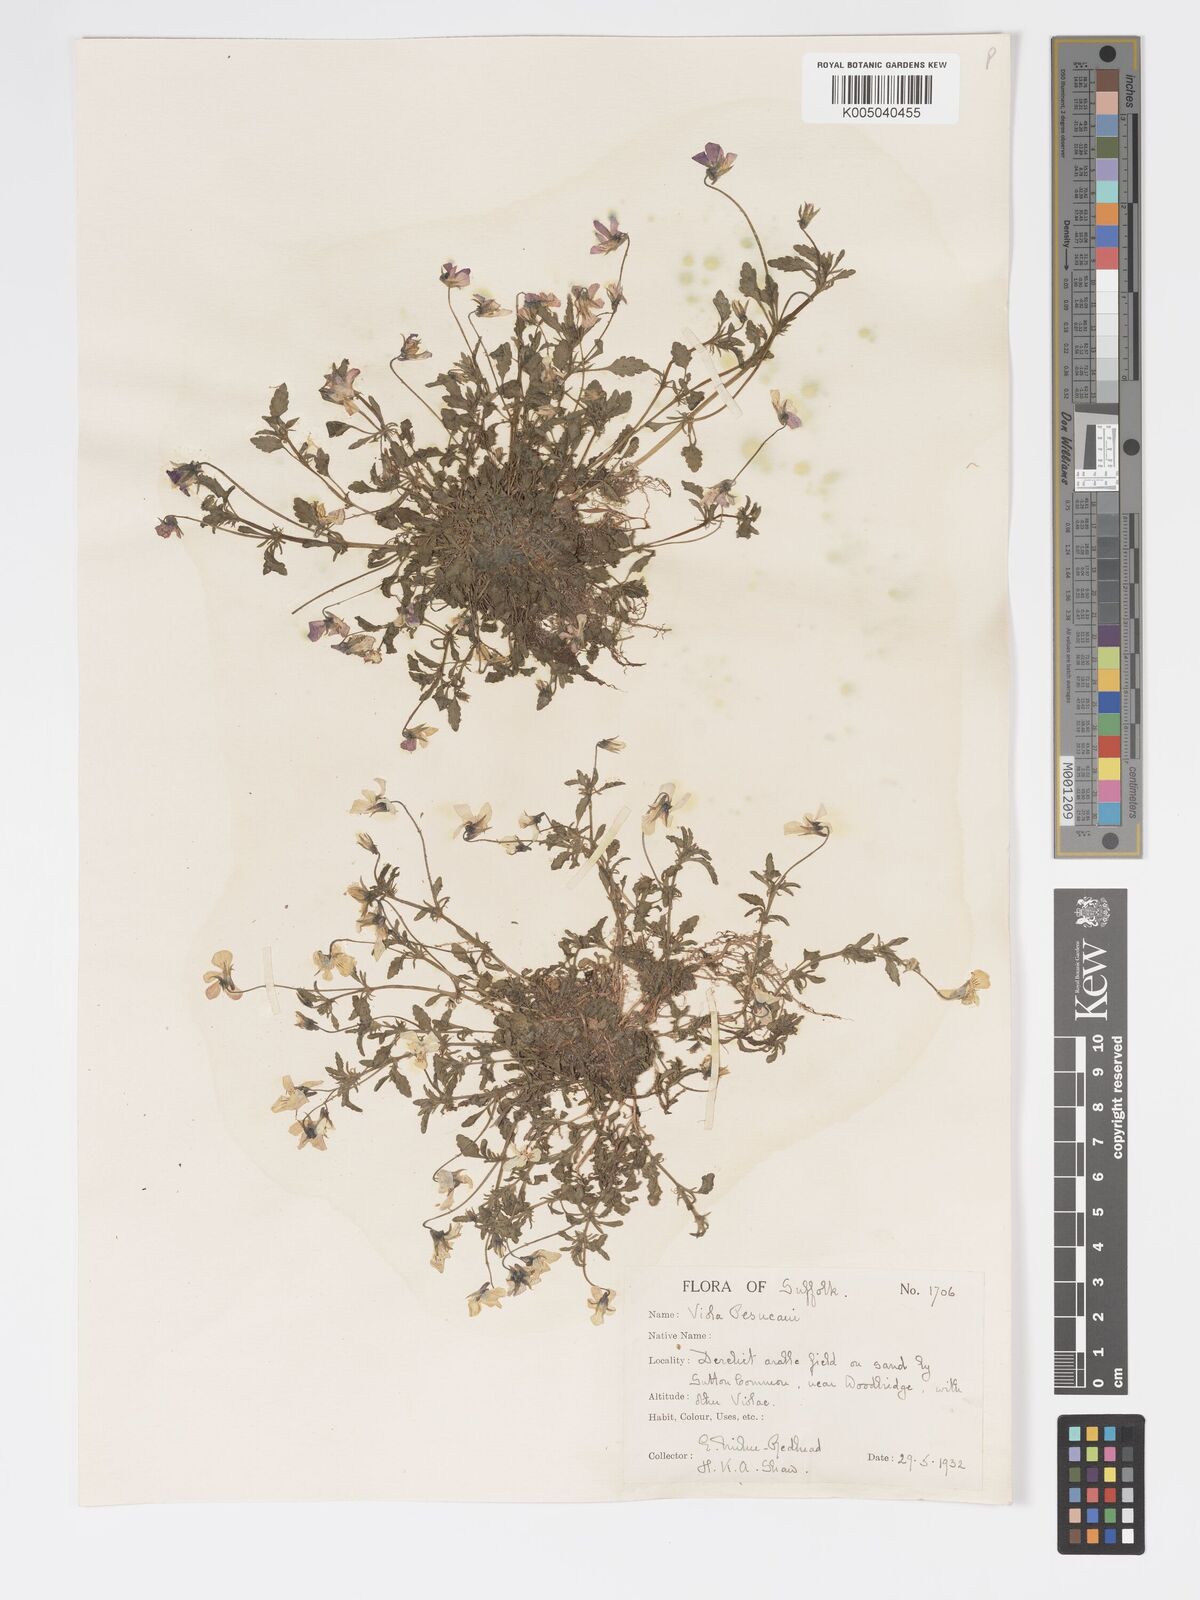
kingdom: Plantae
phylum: Tracheophyta
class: Magnoliopsida
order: Malpighiales
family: Violaceae
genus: Viola
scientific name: Viola arvensis
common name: Field pansy
